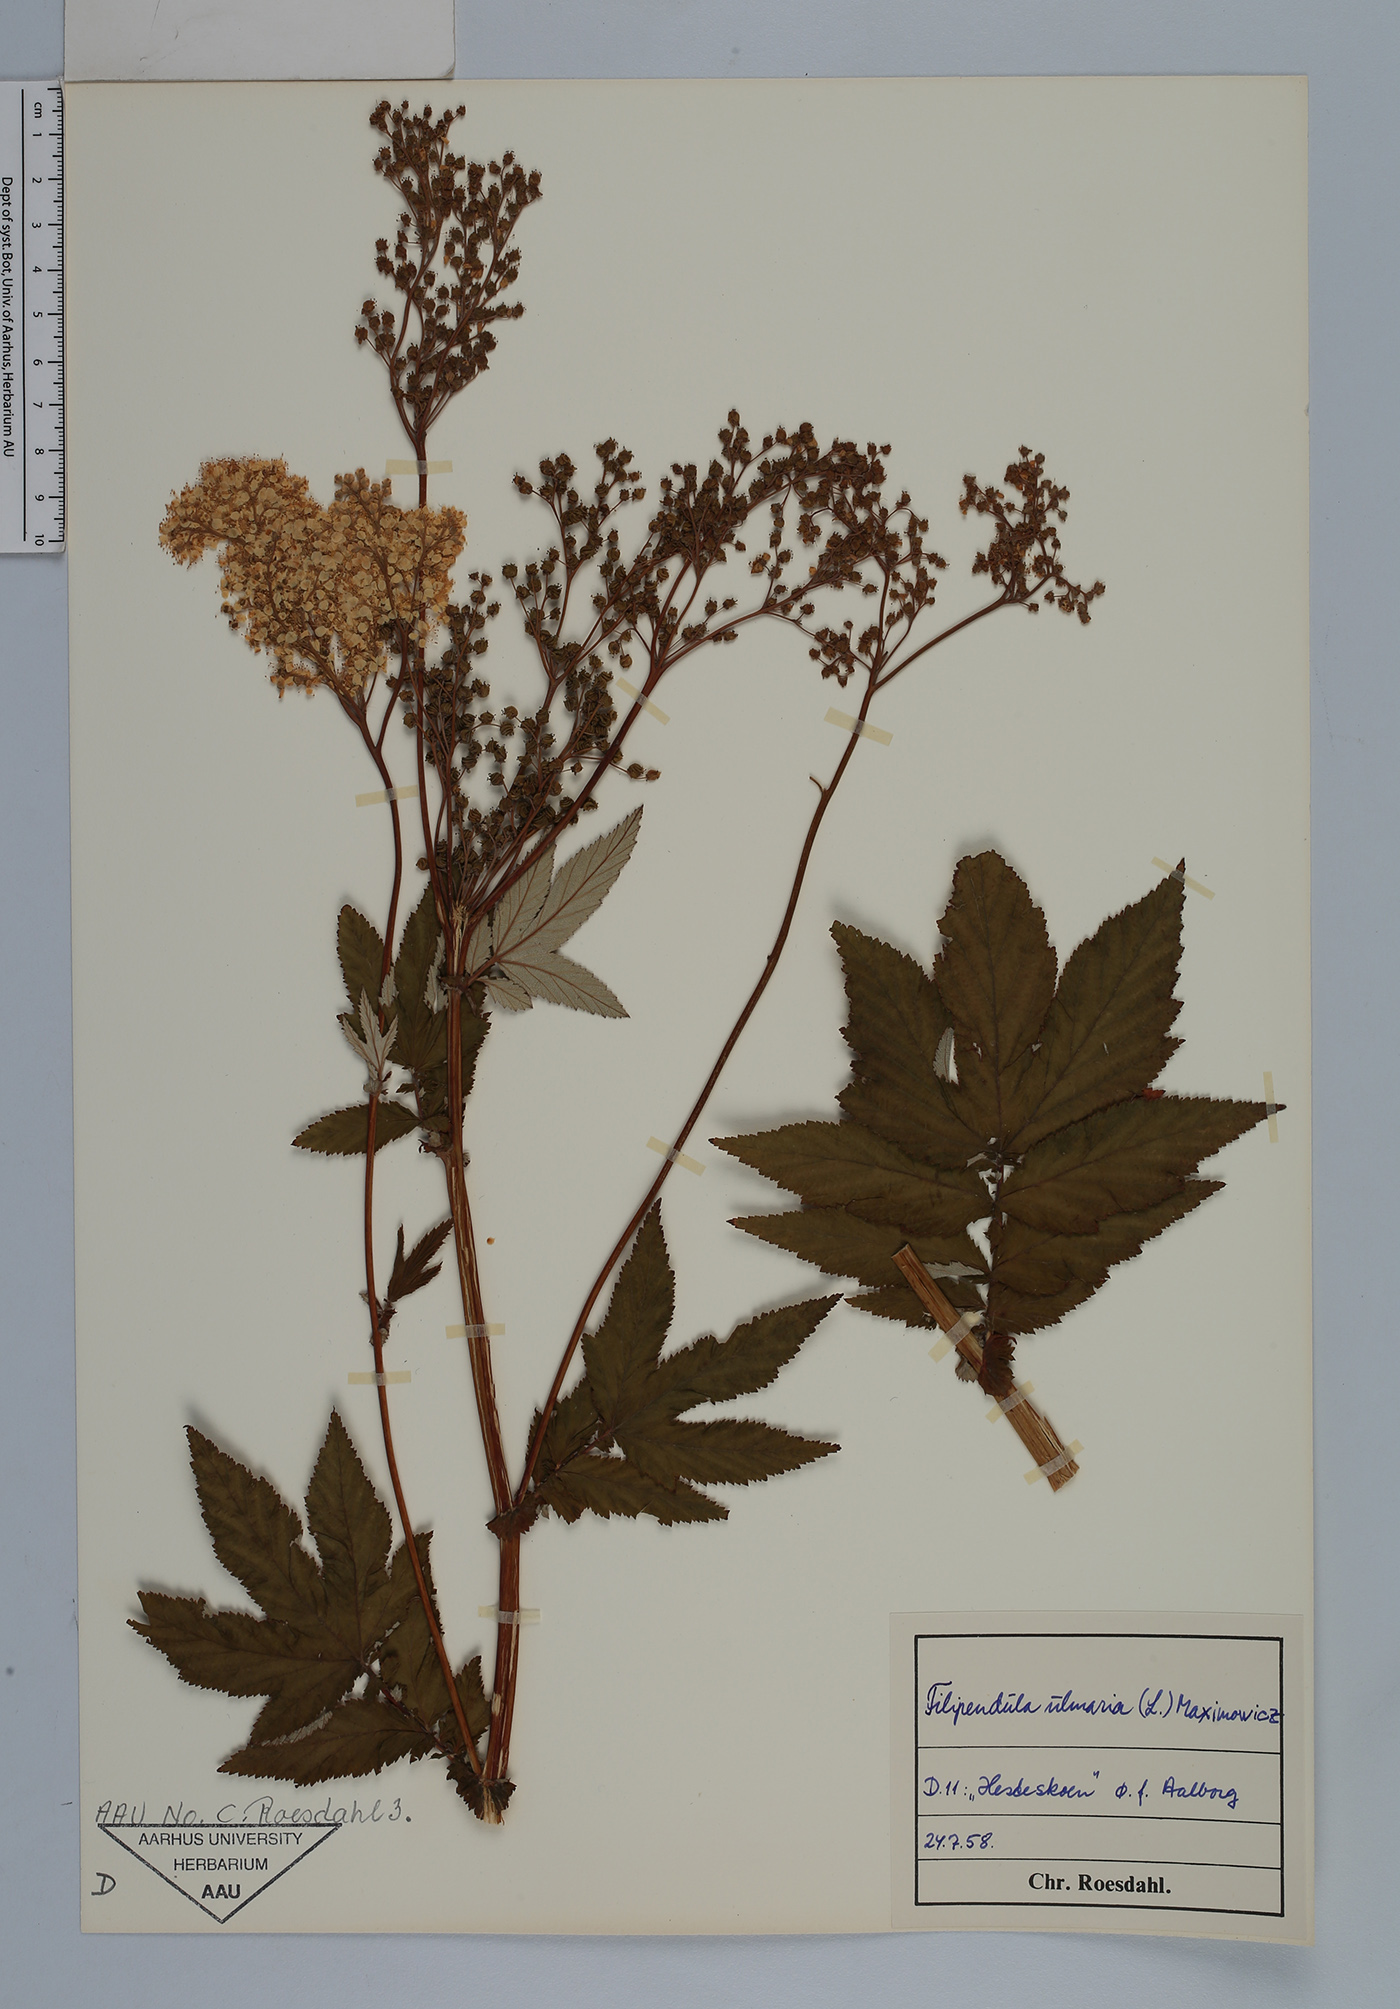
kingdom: Plantae
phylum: Tracheophyta
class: Magnoliopsida
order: Rosales
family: Rosaceae
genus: Filipendula
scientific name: Filipendula vulgaris
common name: Dropwort
